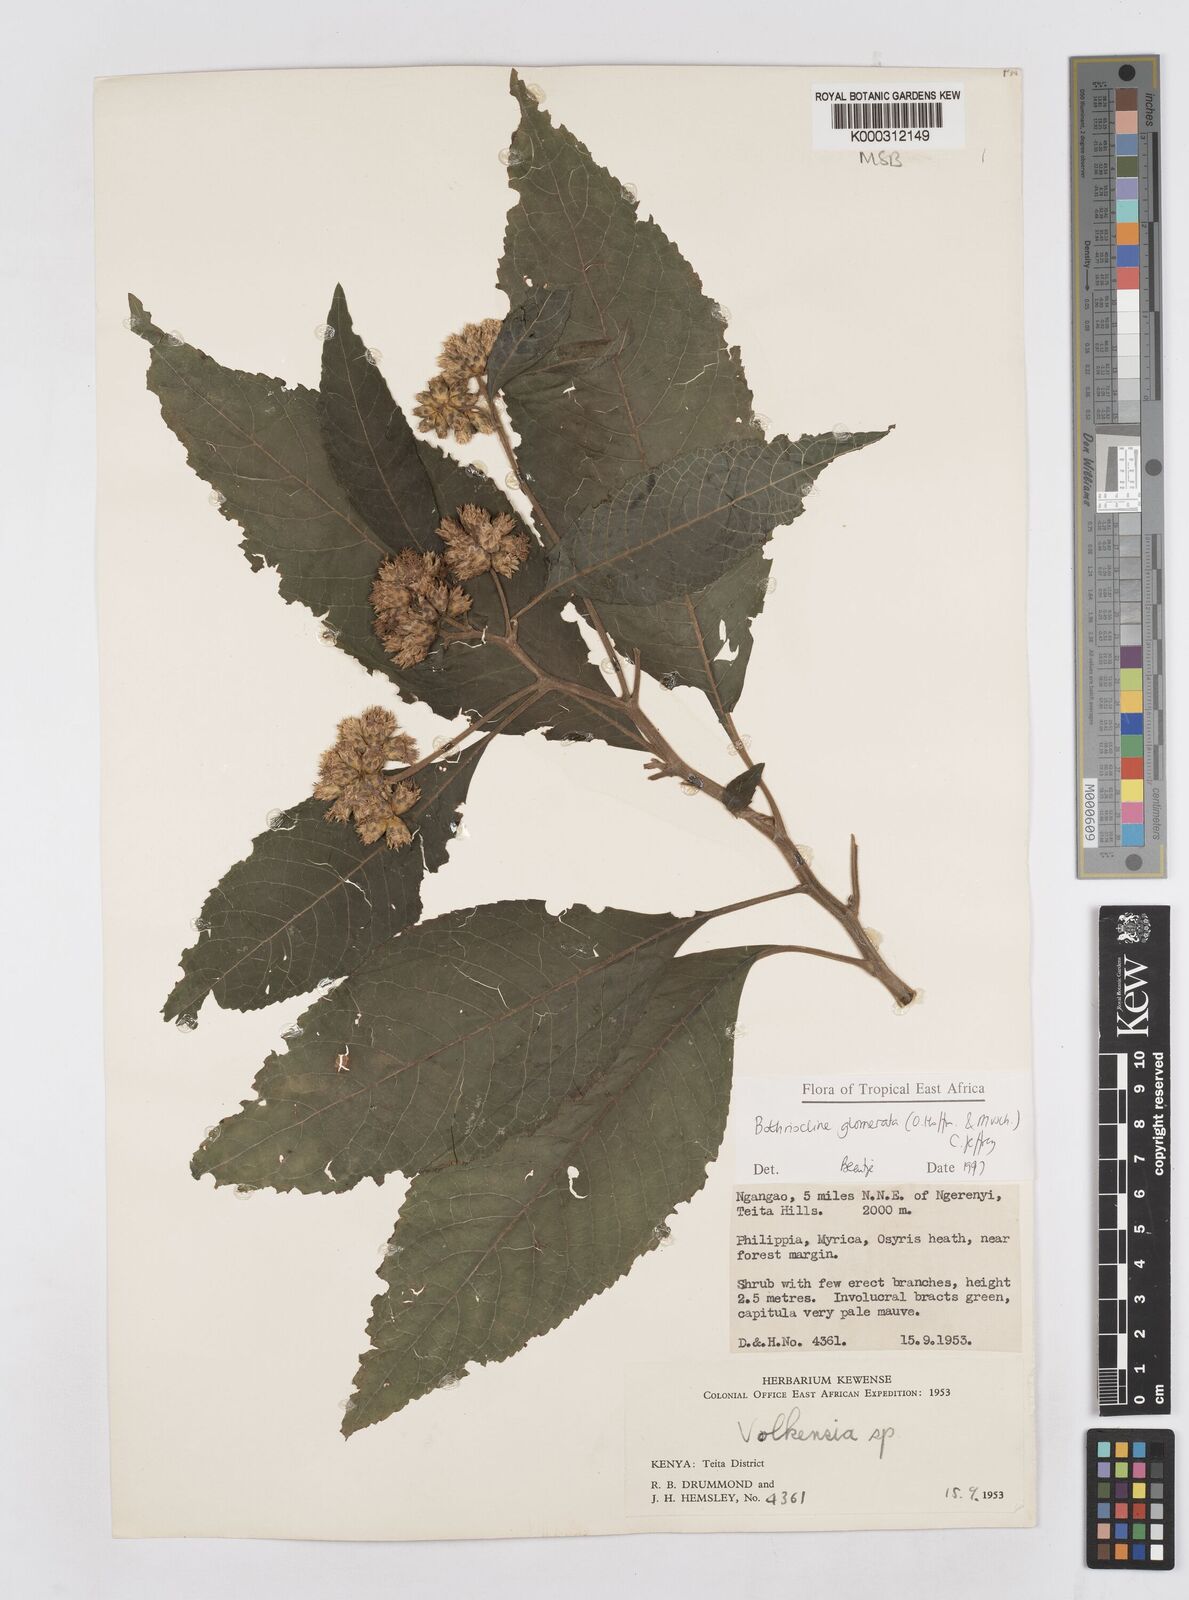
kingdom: Plantae
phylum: Tracheophyta
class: Magnoliopsida
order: Asterales
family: Asteraceae
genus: Bothriocline
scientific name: Bothriocline glomerata
